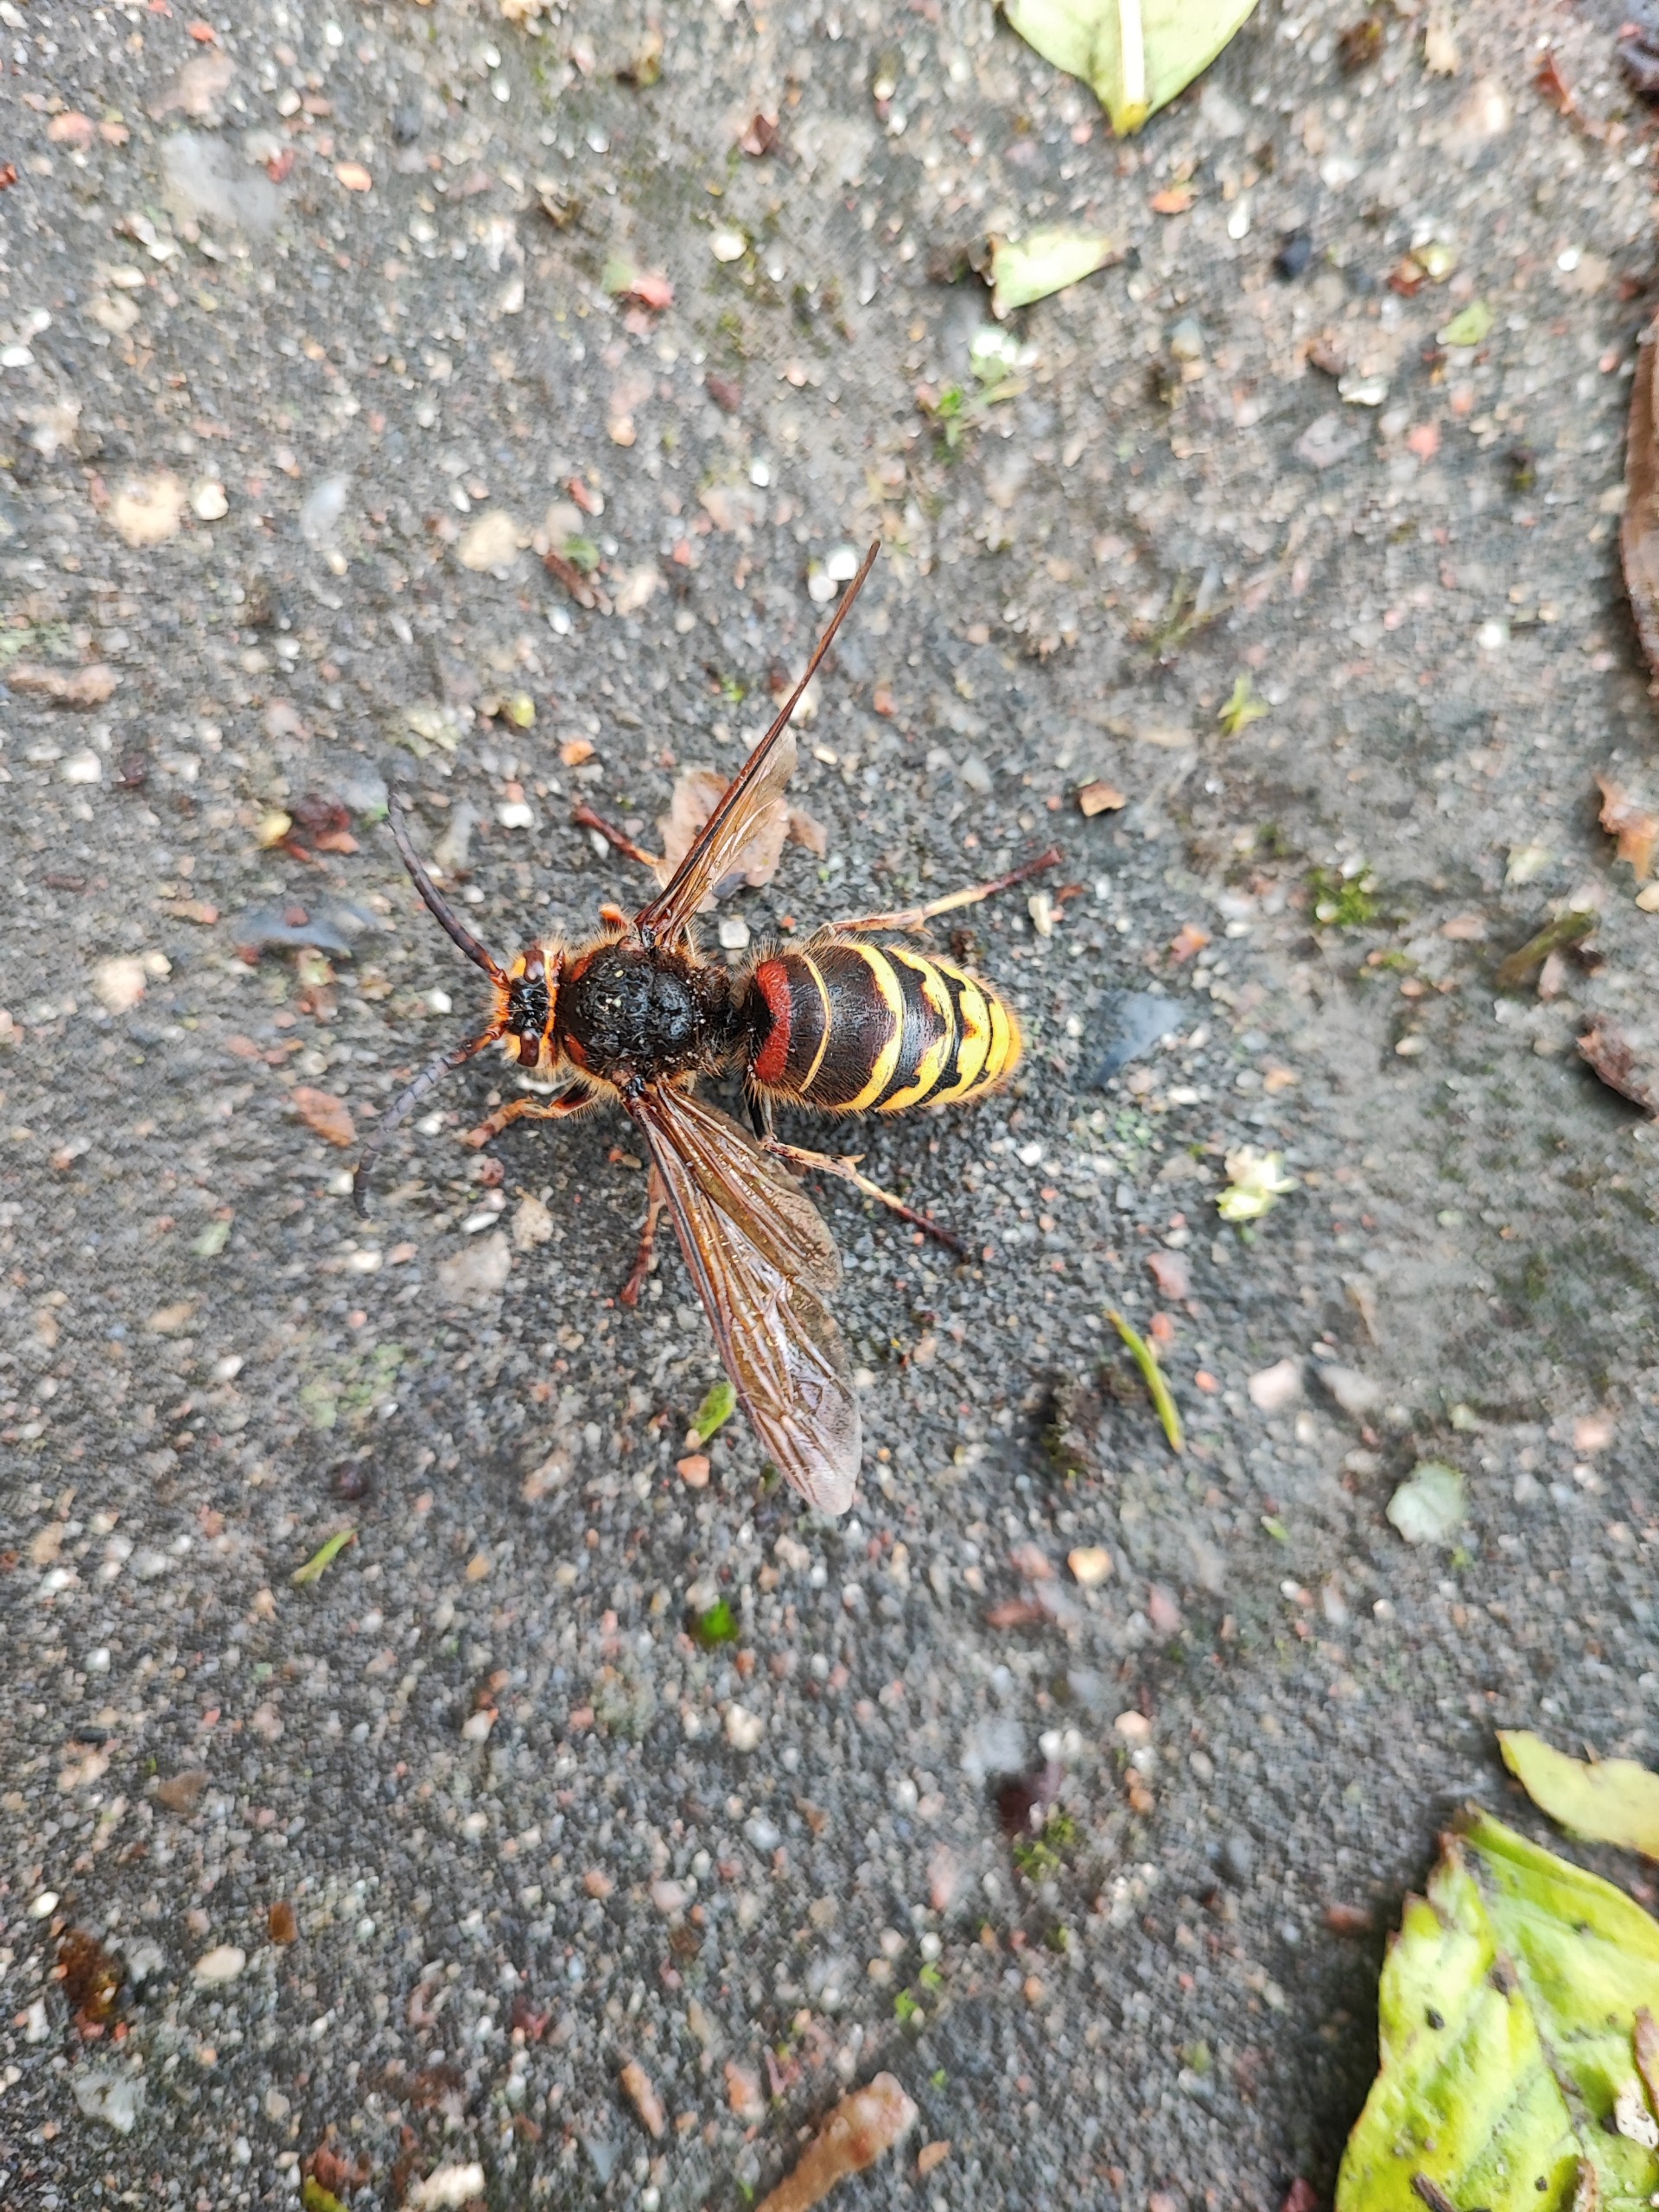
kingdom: Animalia
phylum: Arthropoda
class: Insecta
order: Hymenoptera
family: Vespidae
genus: Vespa
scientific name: Vespa crabro
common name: Stor gedehams
